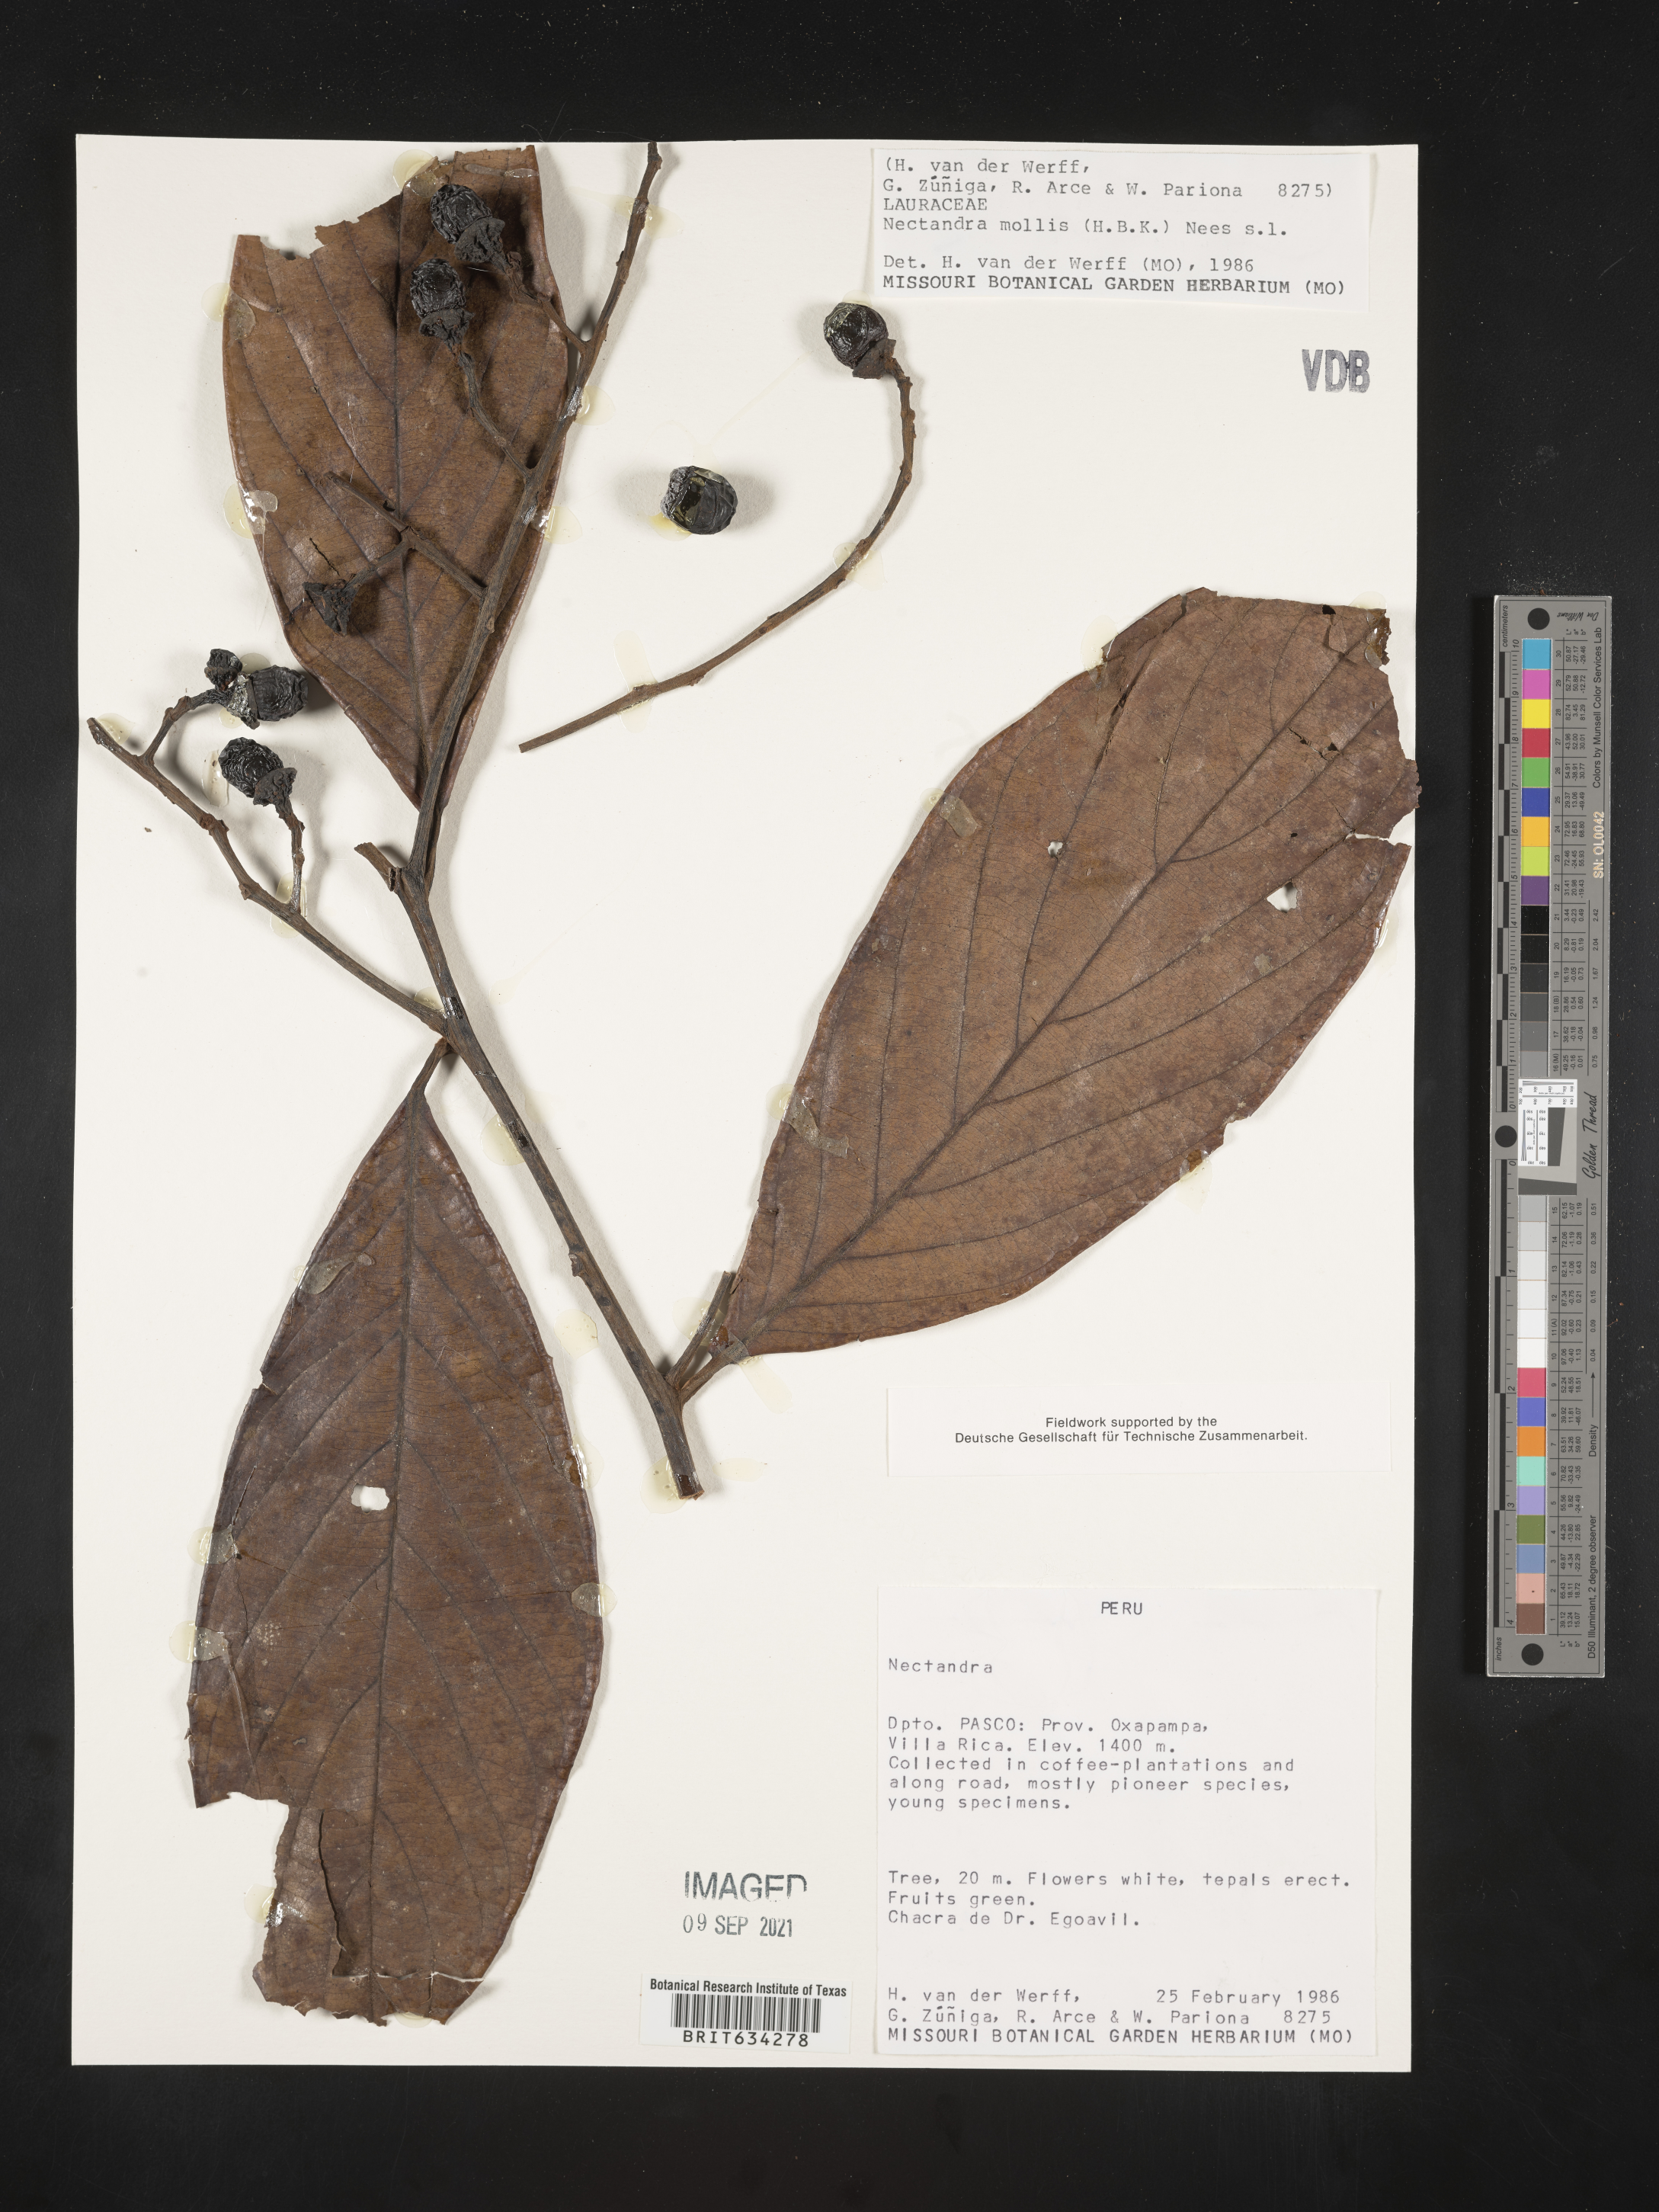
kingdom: Plantae
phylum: Tracheophyta
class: Magnoliopsida
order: Laurales
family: Lauraceae
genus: Nectandra
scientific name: Nectandra
